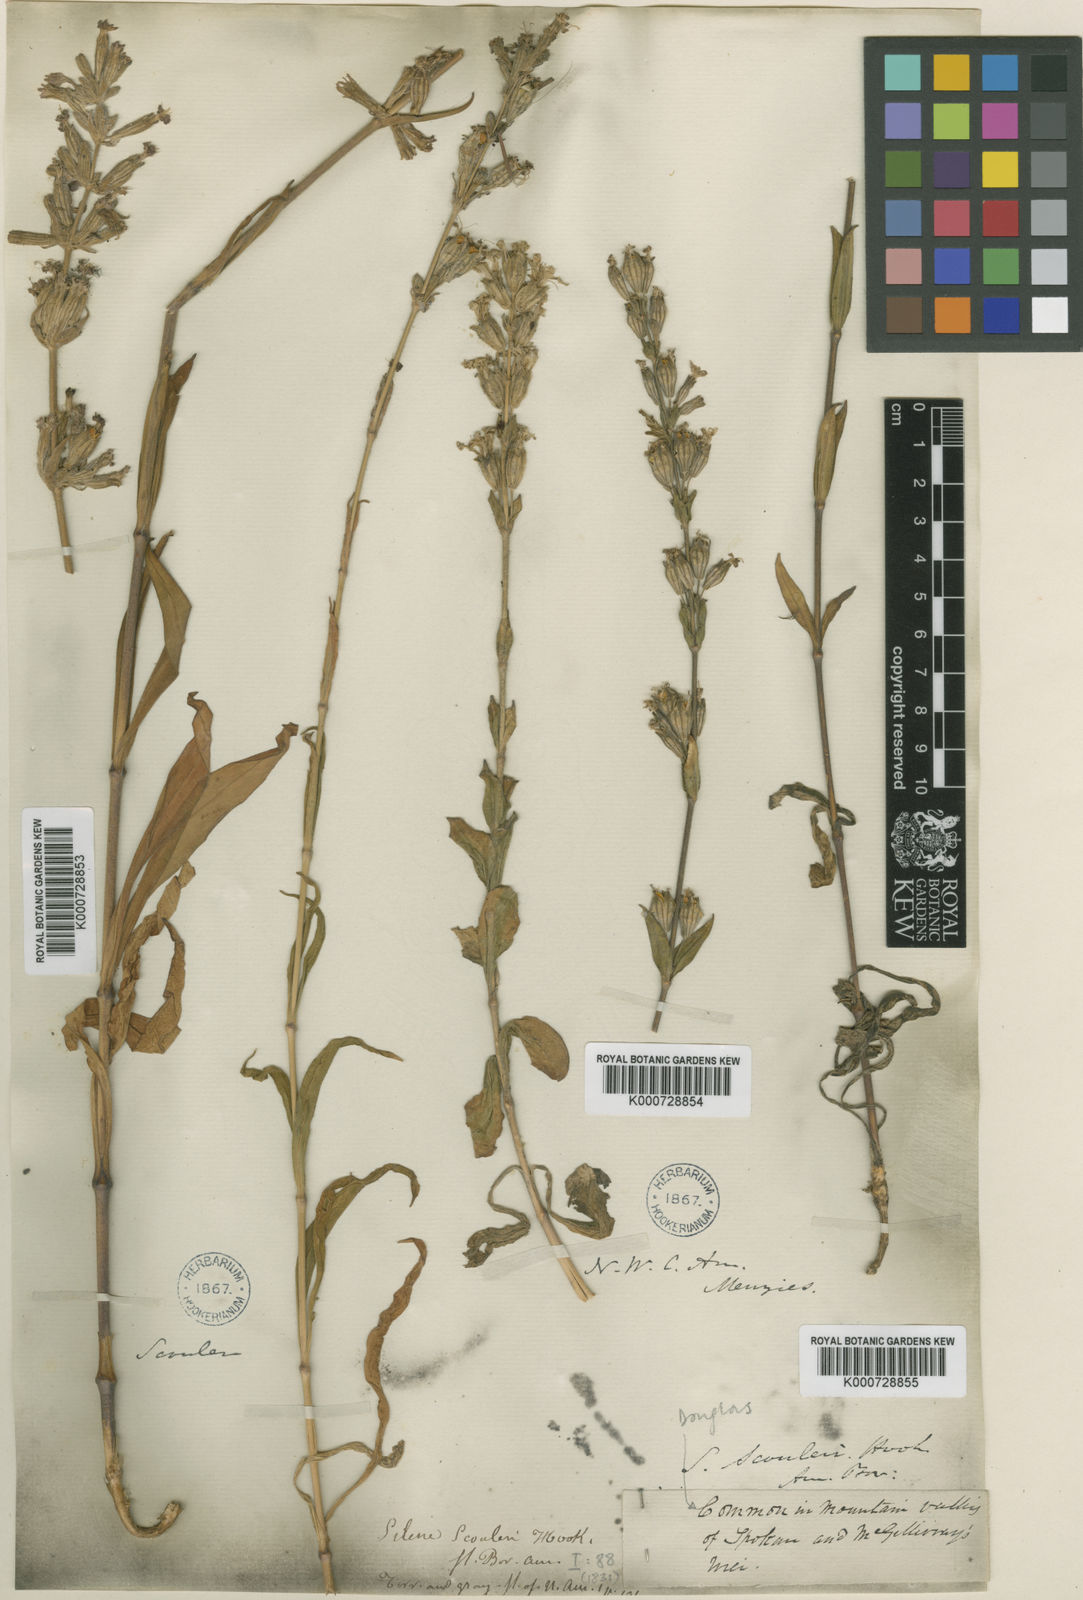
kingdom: Plantae
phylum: Tracheophyta
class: Magnoliopsida
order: Caryophyllales
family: Caryophyllaceae
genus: Silene
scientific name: Silene scouleri
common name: Scouler's campion
